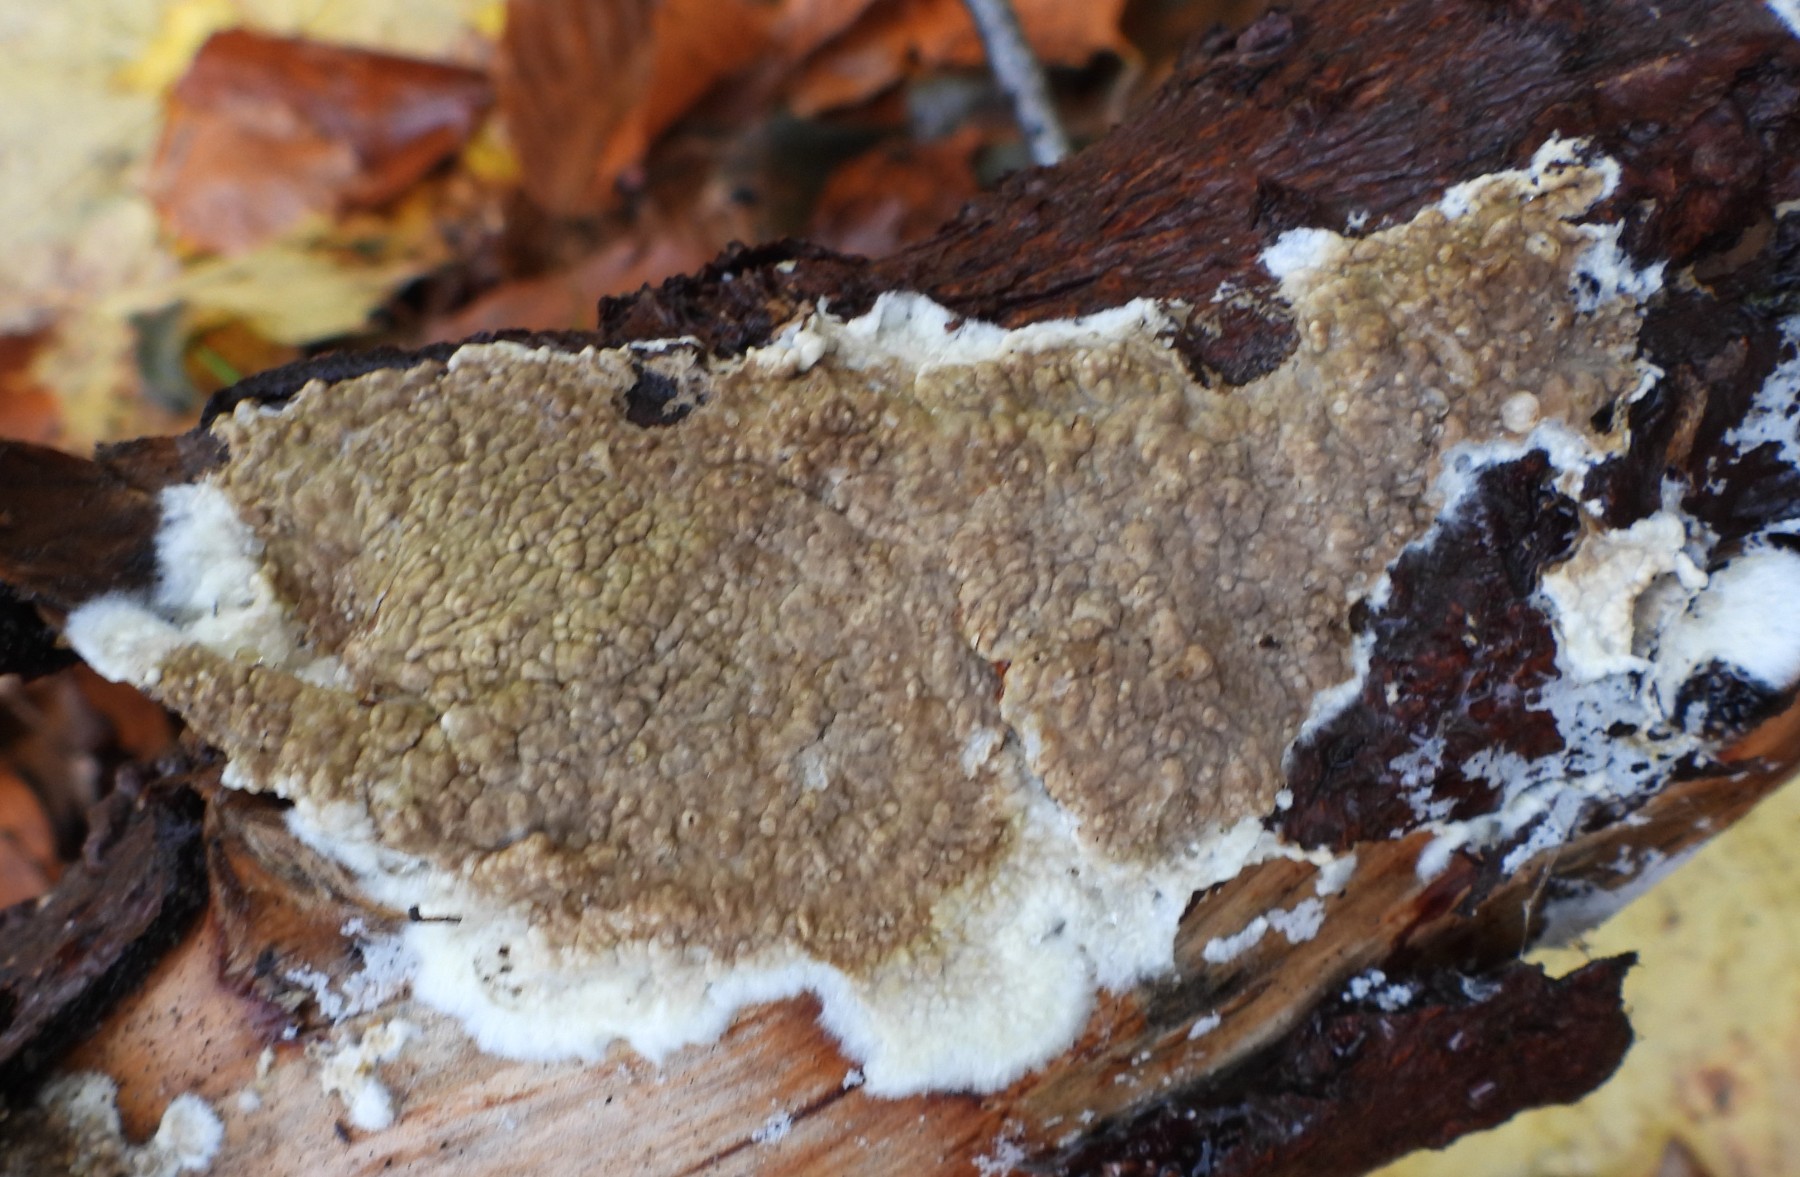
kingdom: Fungi
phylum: Basidiomycota
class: Agaricomycetes
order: Boletales
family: Coniophoraceae
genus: Coniophora
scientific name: Coniophora puteana
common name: gul tømmersvamp
